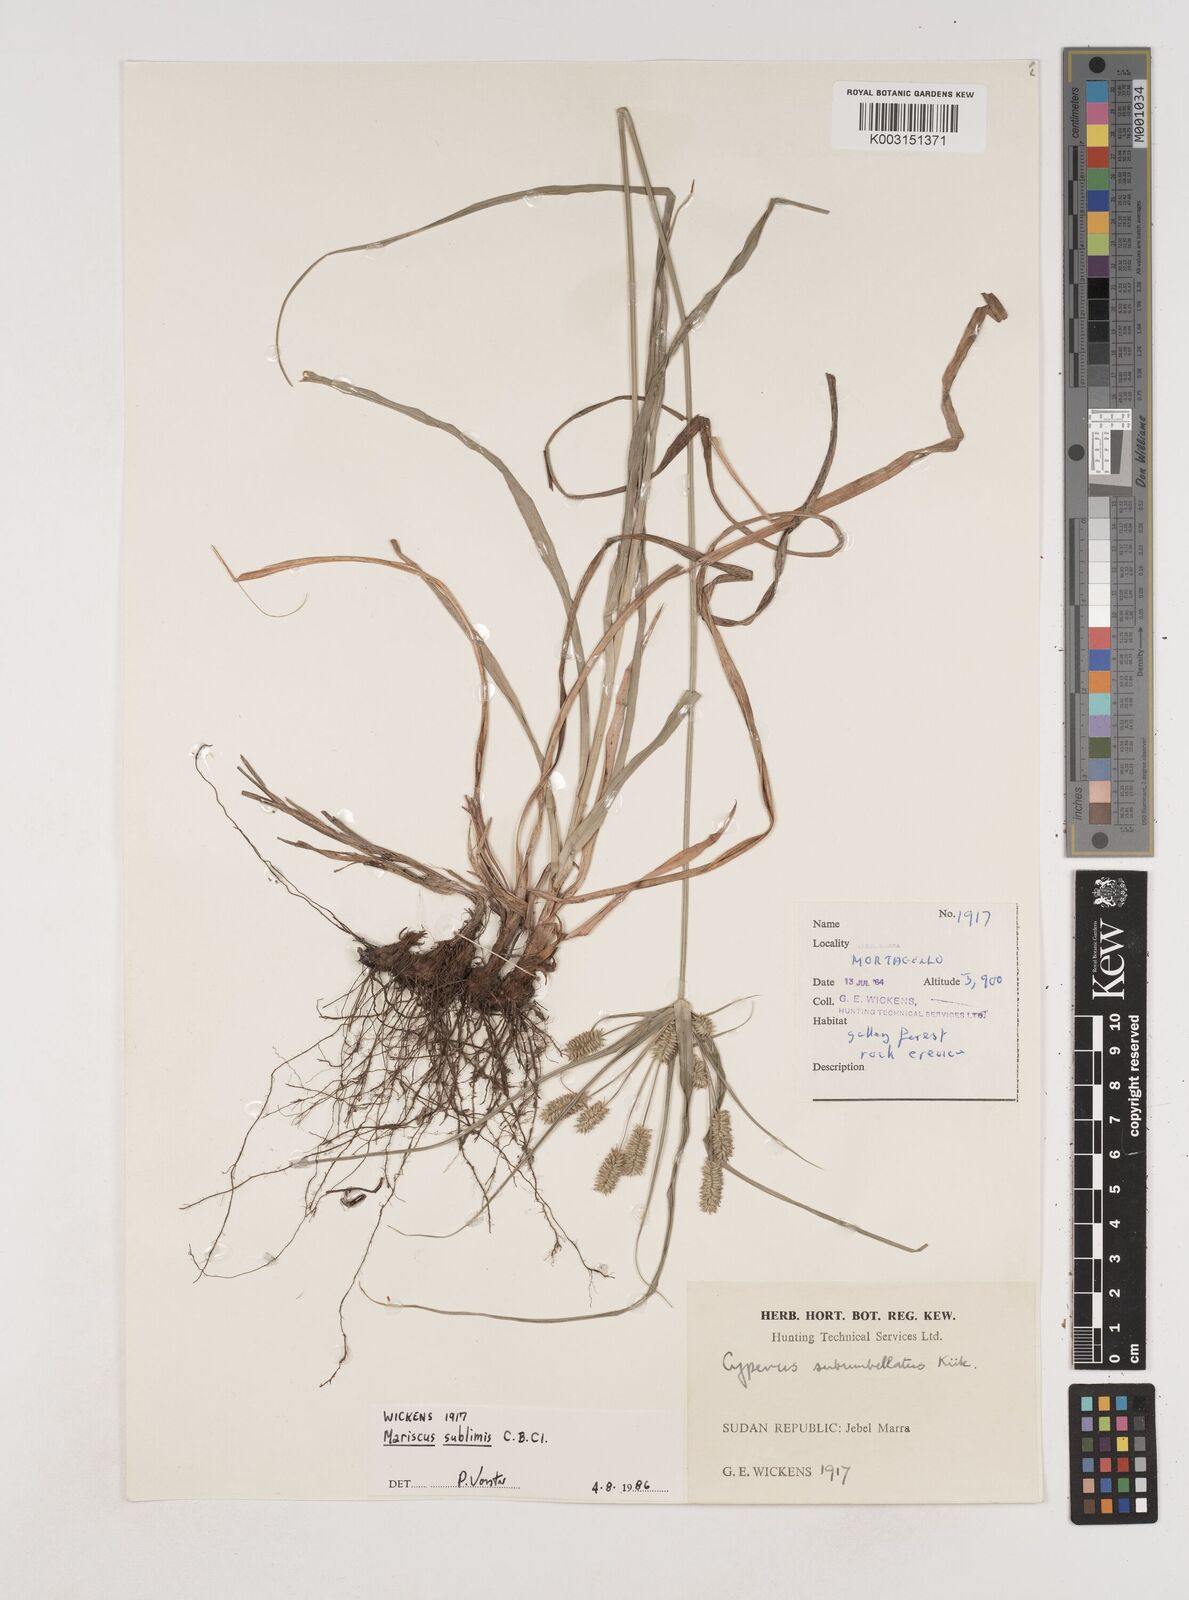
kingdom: Plantae
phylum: Tracheophyta
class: Liliopsida
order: Poales
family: Cyperaceae
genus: Cyperus
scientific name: Cyperus cyperoides
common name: Pacific island flat sedge
